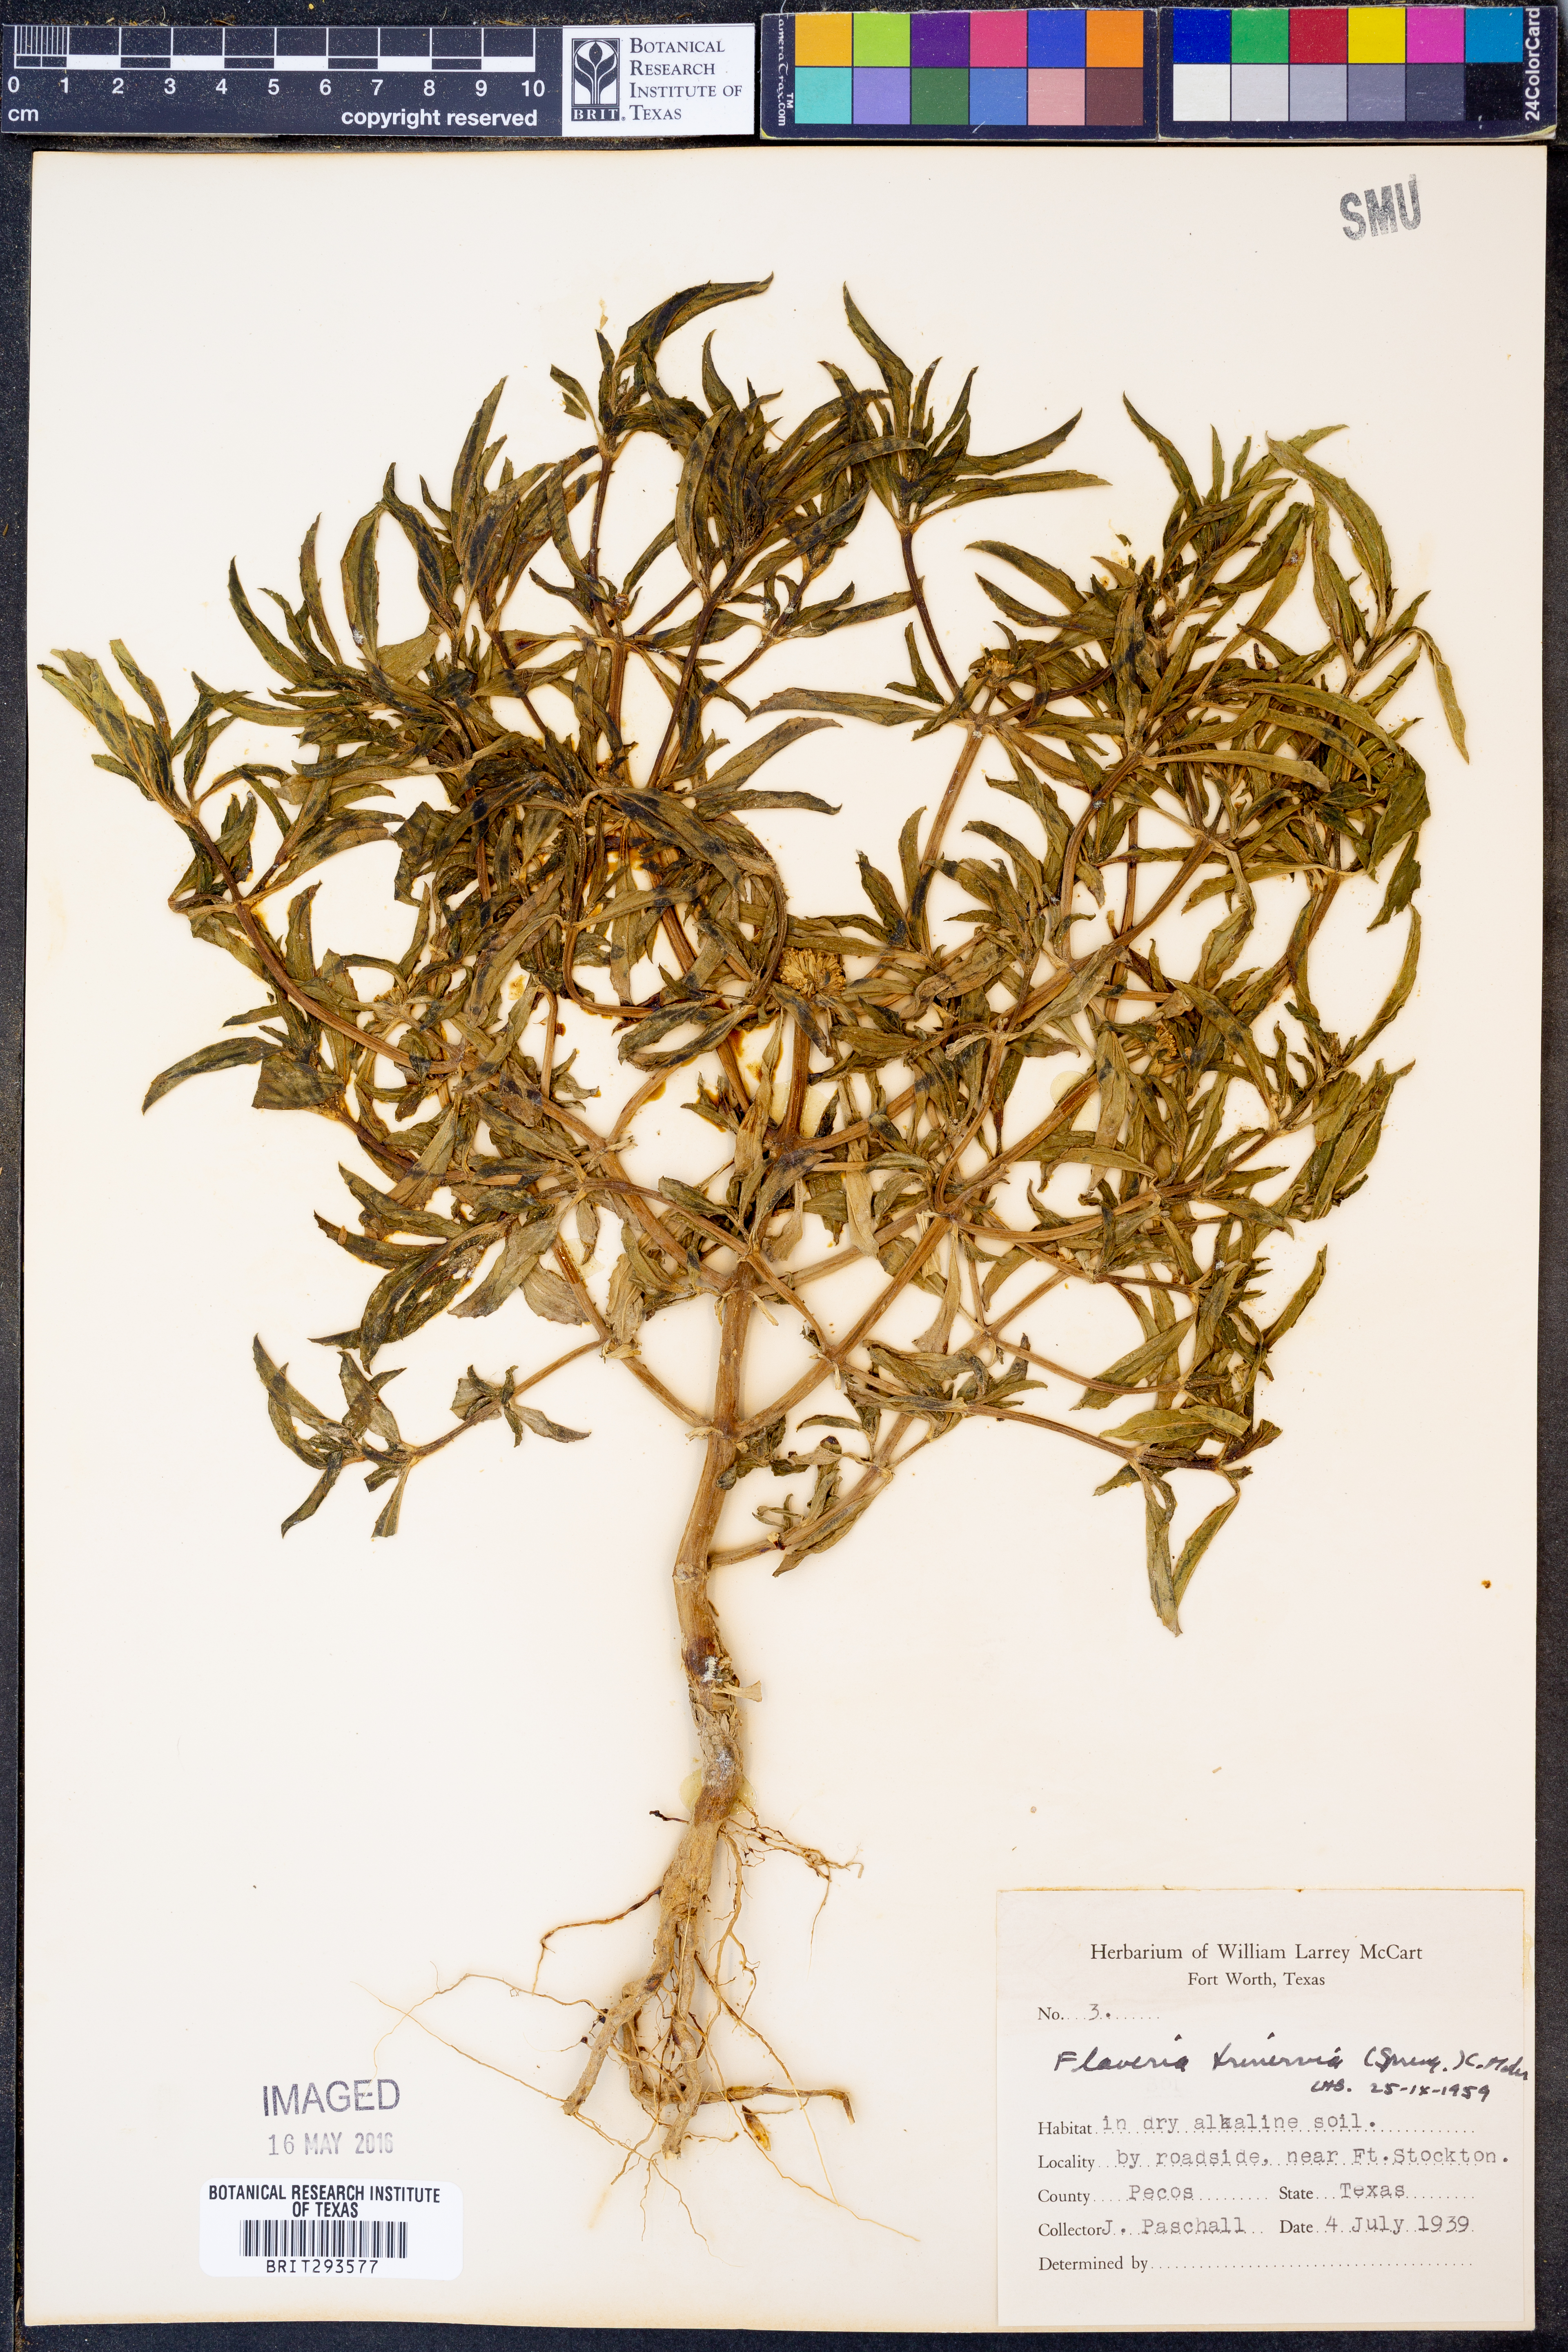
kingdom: Plantae
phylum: Tracheophyta
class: Magnoliopsida
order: Asterales
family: Asteraceae
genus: Flaveria
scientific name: Flaveria trinervia
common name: Clustered yellowtops
